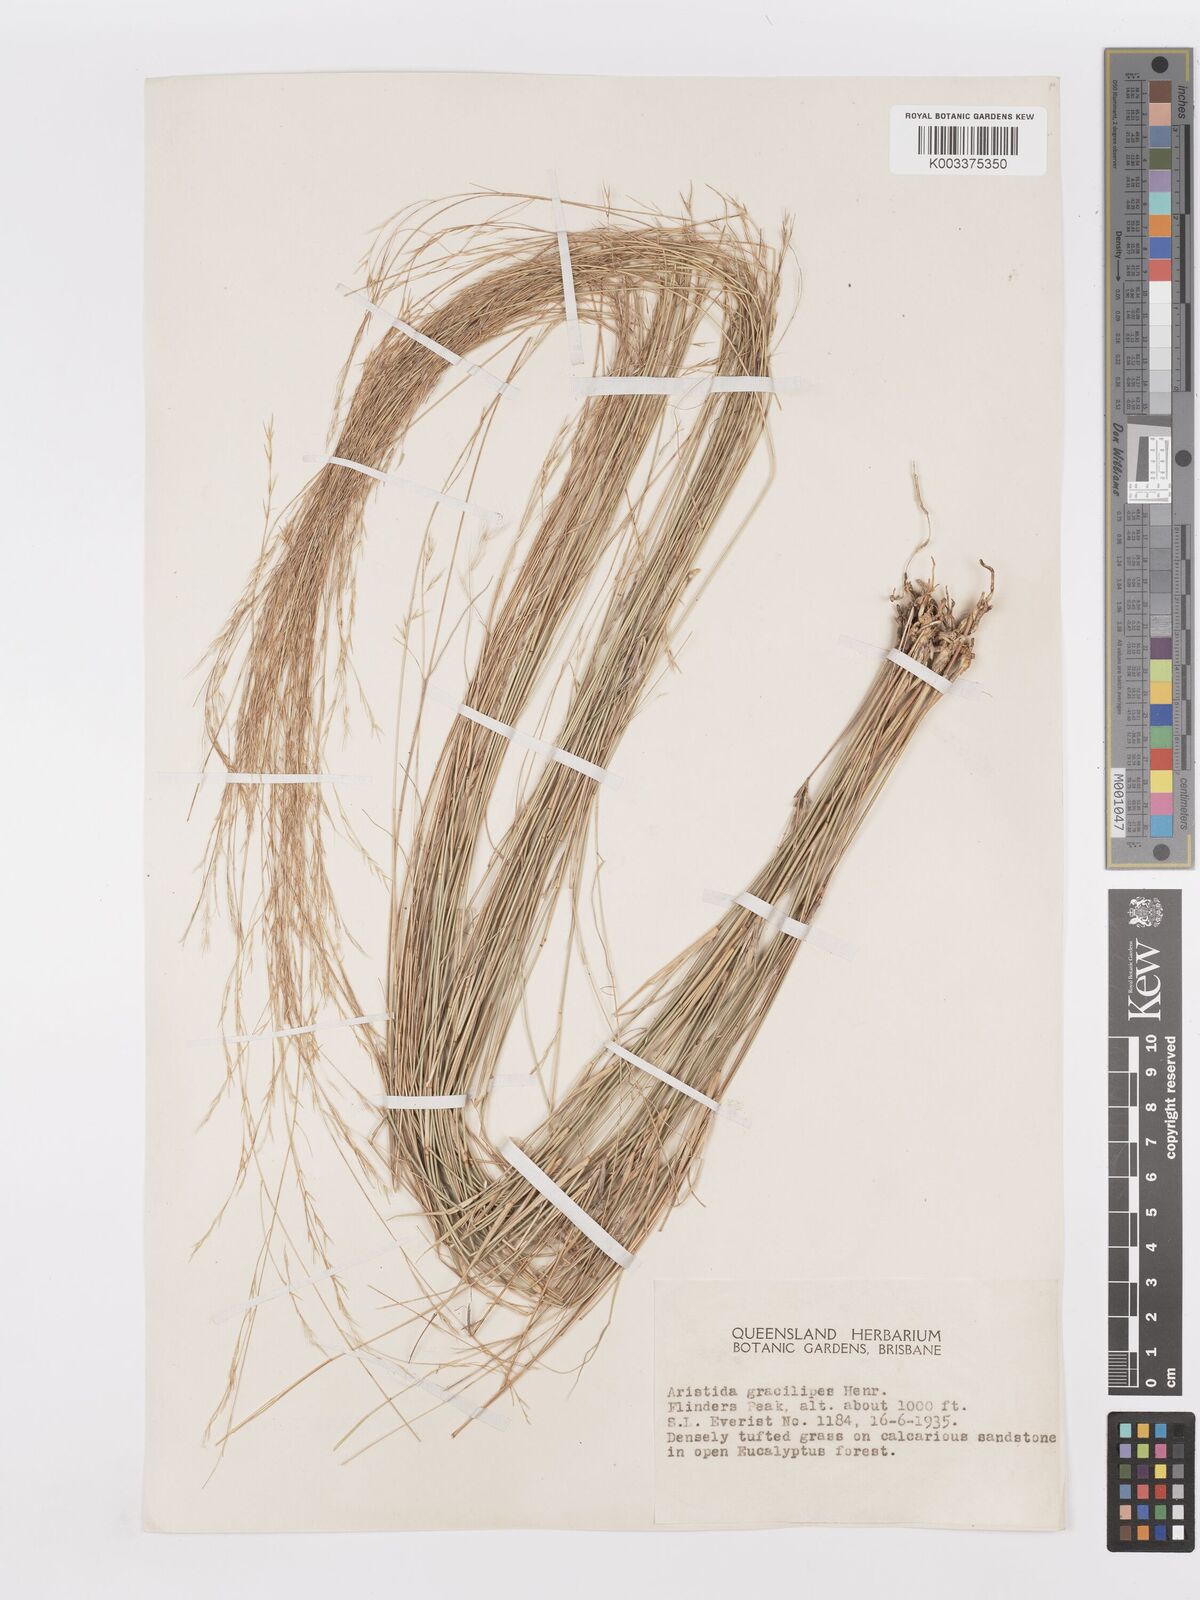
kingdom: Plantae
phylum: Tracheophyta
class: Liliopsida
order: Poales
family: Poaceae
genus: Aristida
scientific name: Aristida gracilipes
